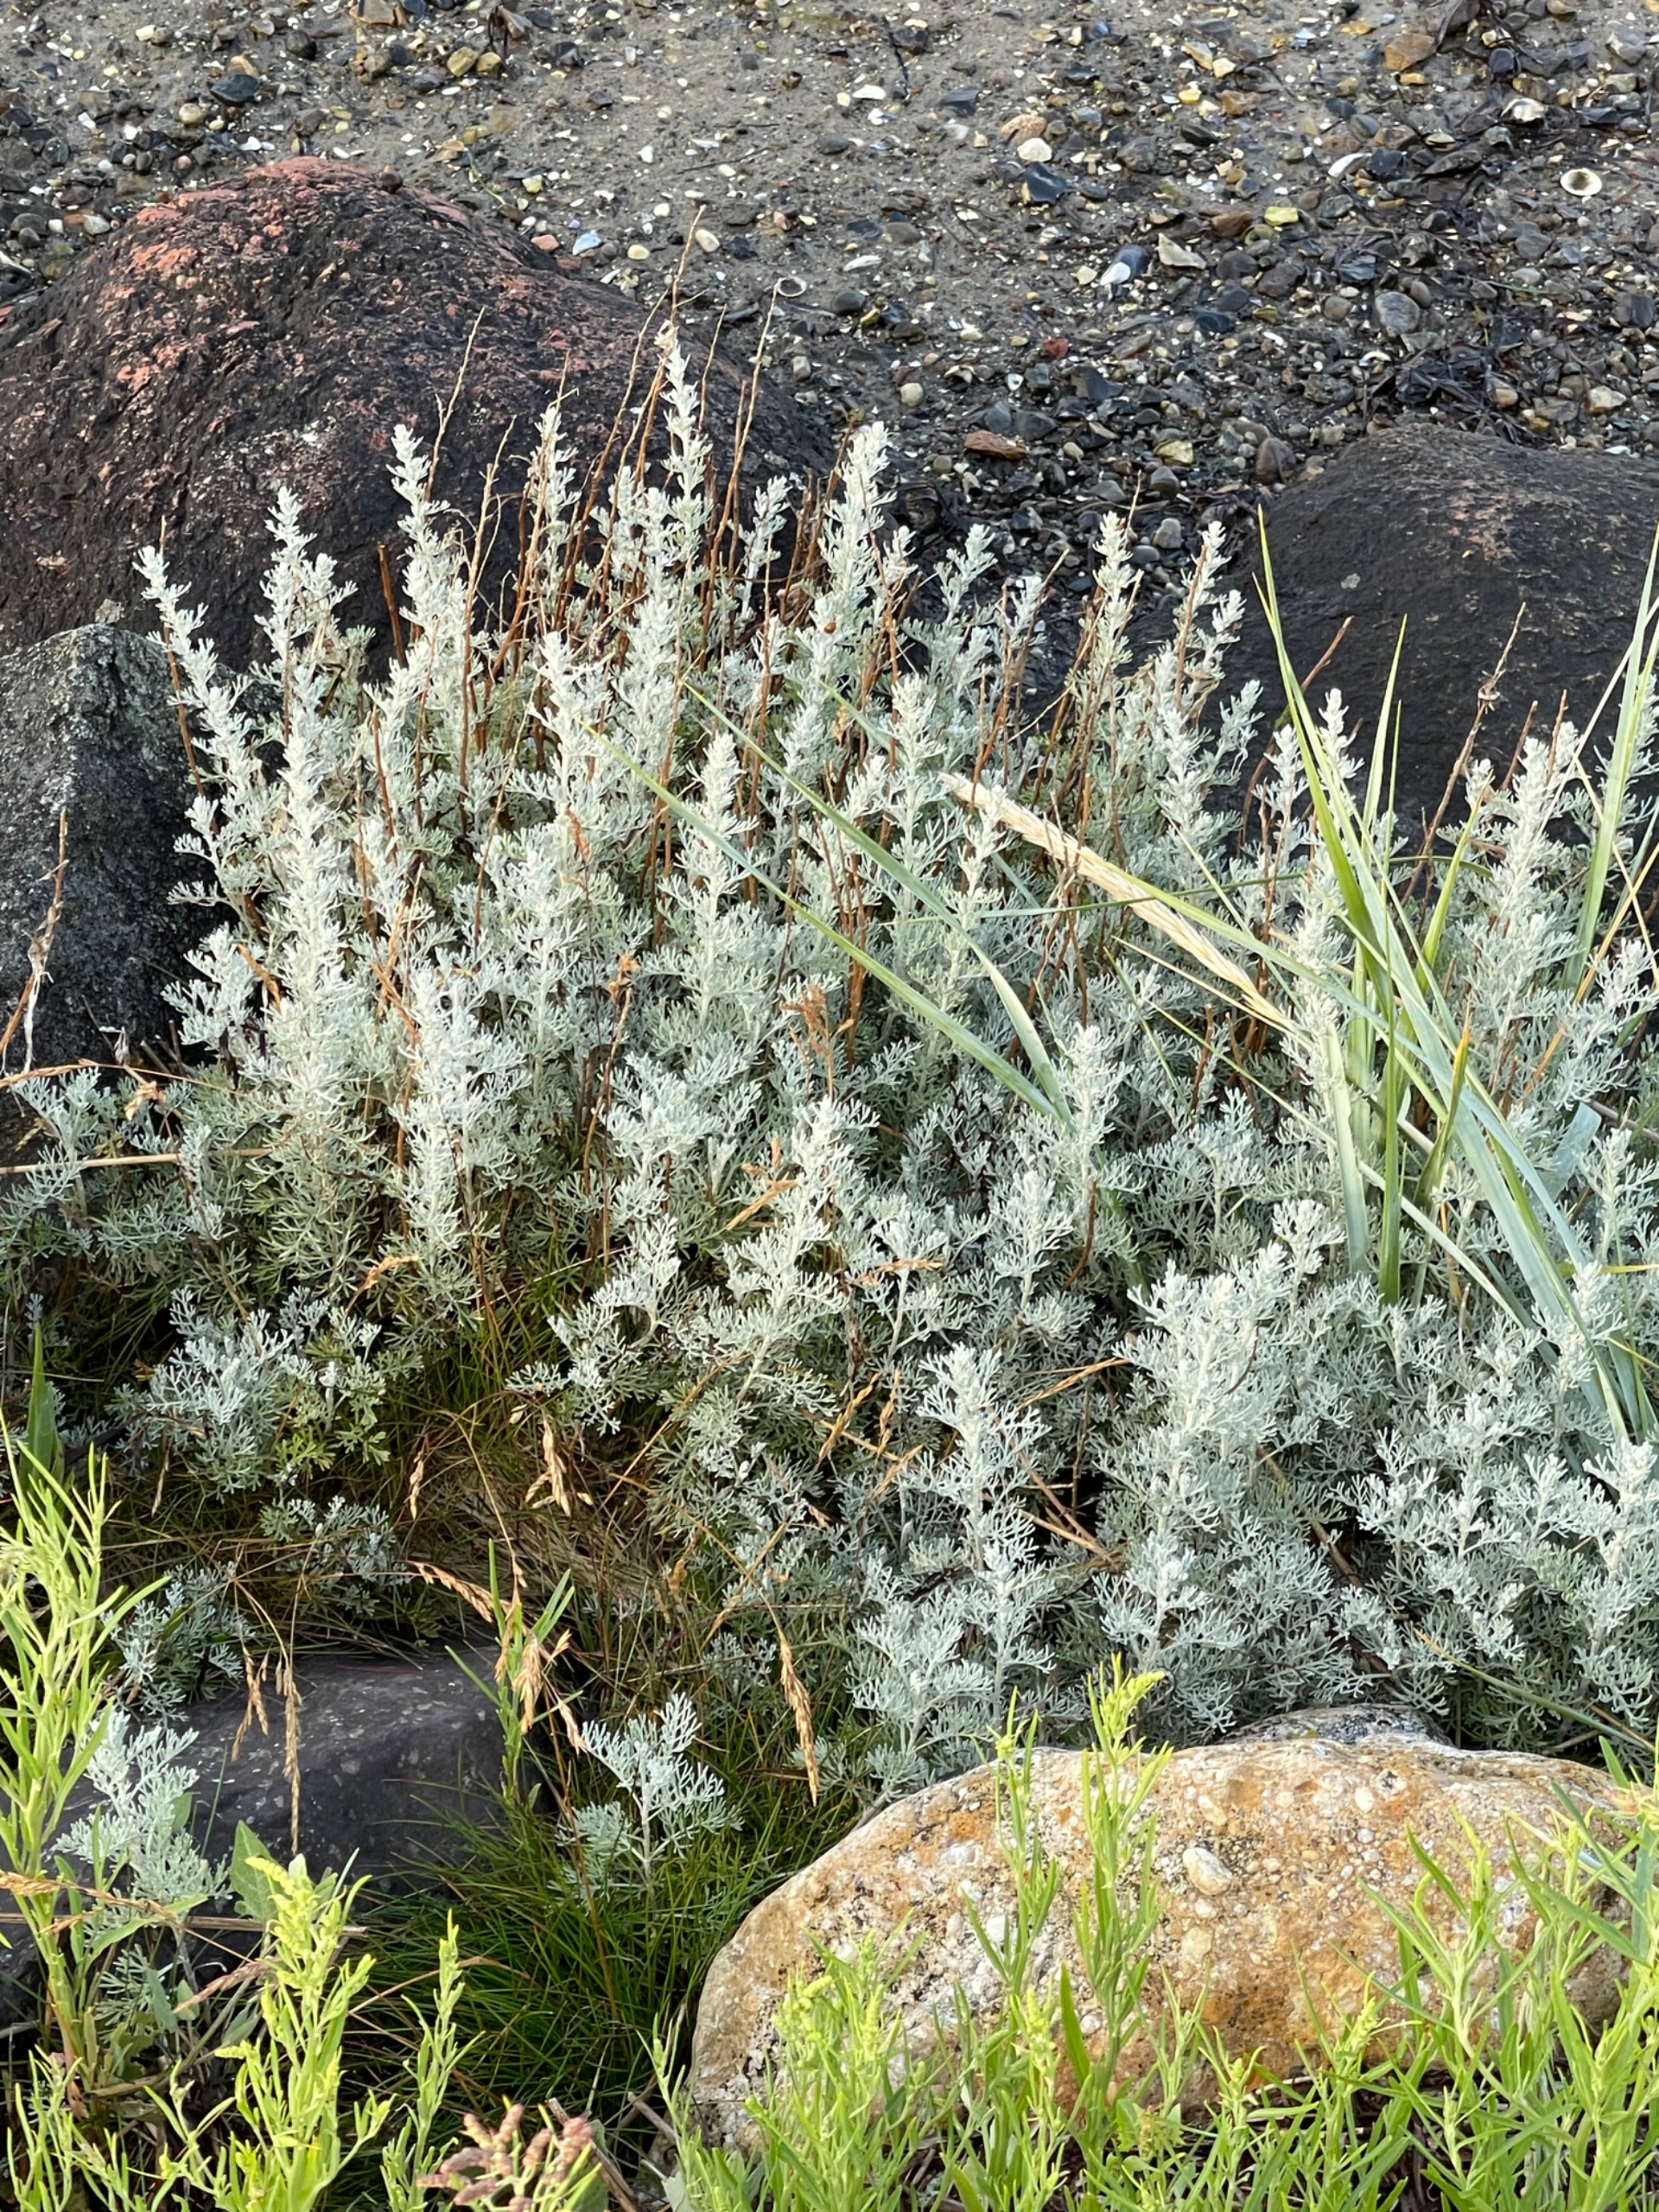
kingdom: Plantae
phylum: Tracheophyta
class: Magnoliopsida
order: Asterales
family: Asteraceae
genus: Artemisia
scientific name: Artemisia maritima
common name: Strandmalurt
